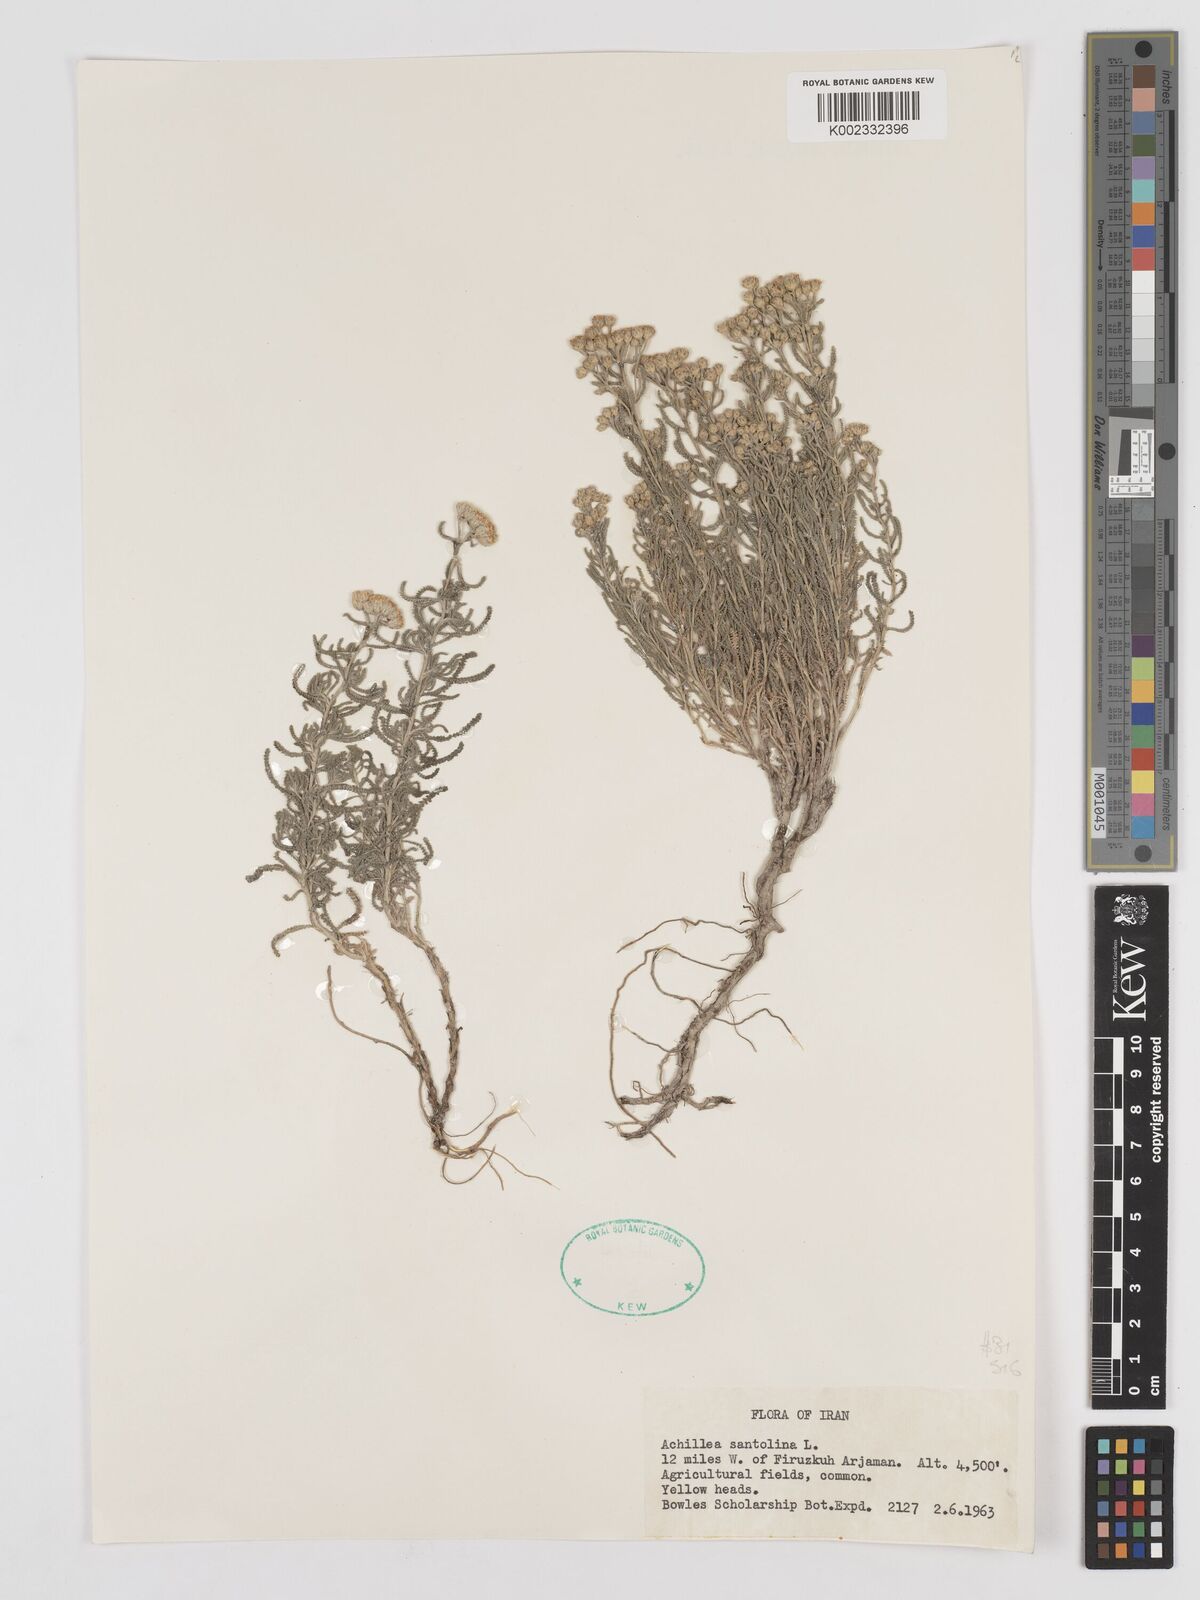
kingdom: Plantae
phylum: Tracheophyta
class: Magnoliopsida
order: Asterales
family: Asteraceae
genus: Achillea
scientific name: Achillea cretica
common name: Chamomile-leaved lavender-cotton
